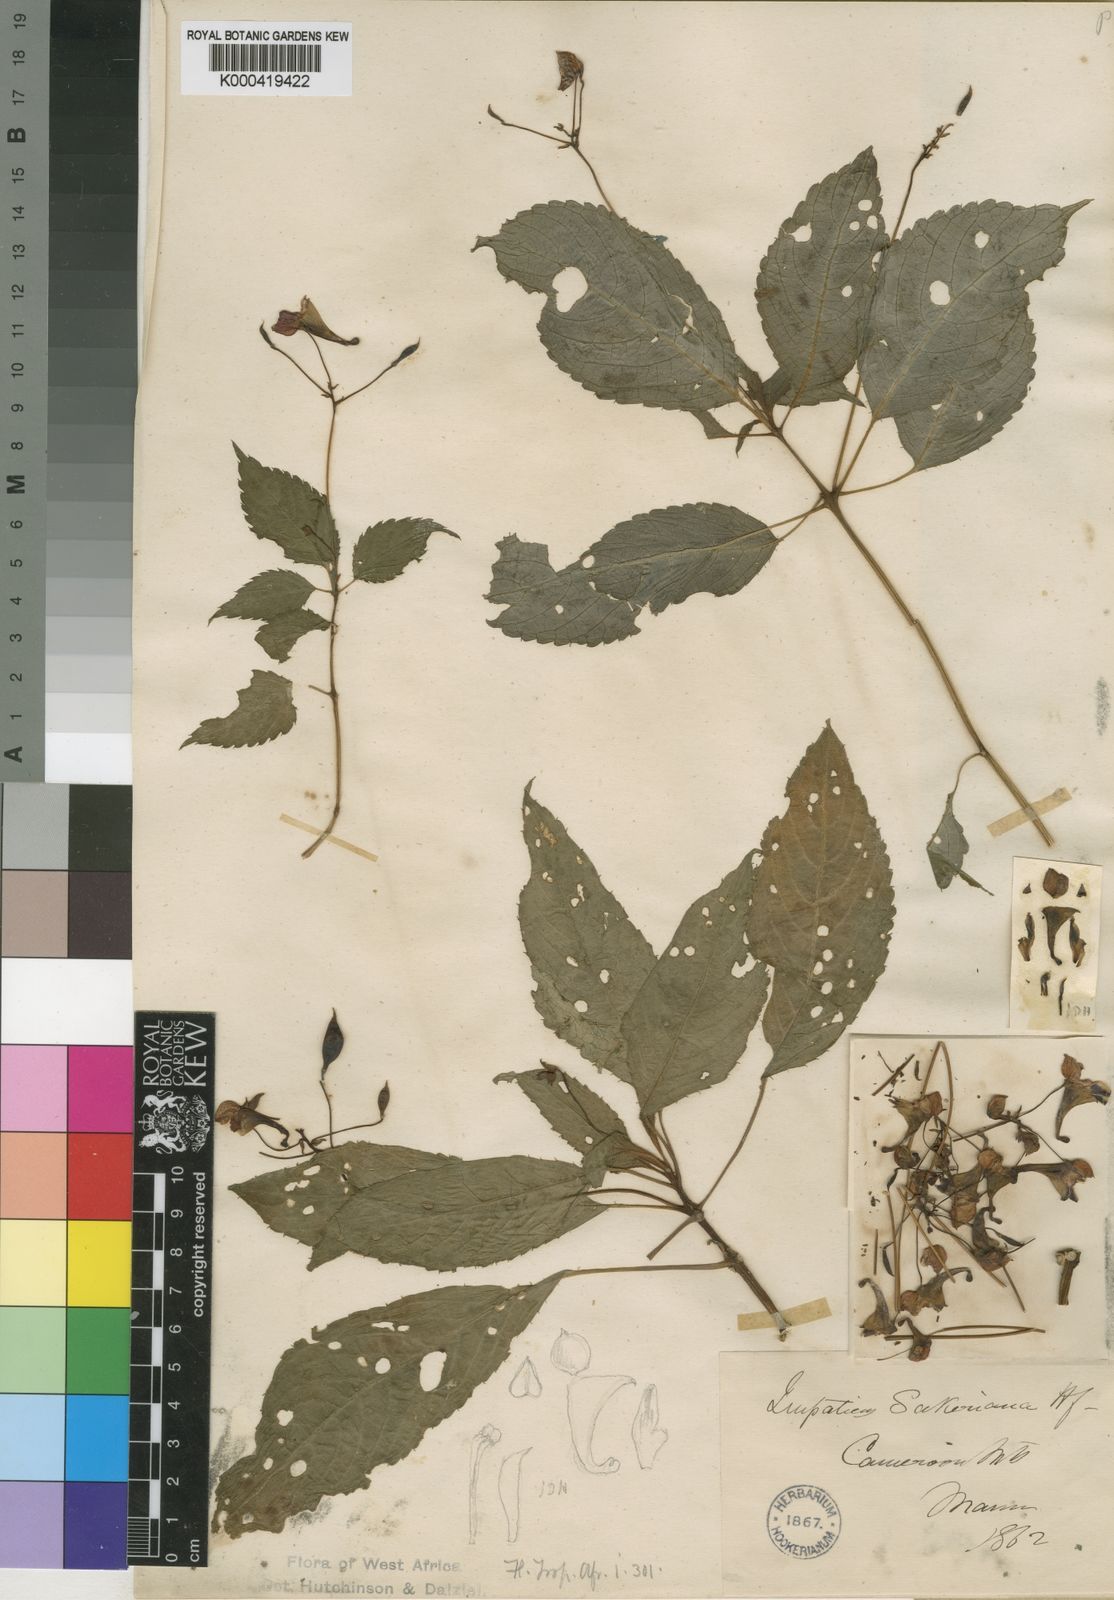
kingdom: Plantae
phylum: Tracheophyta
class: Magnoliopsida
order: Ericales
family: Balsaminaceae
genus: Impatiens
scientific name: Impatiens sakeriana
